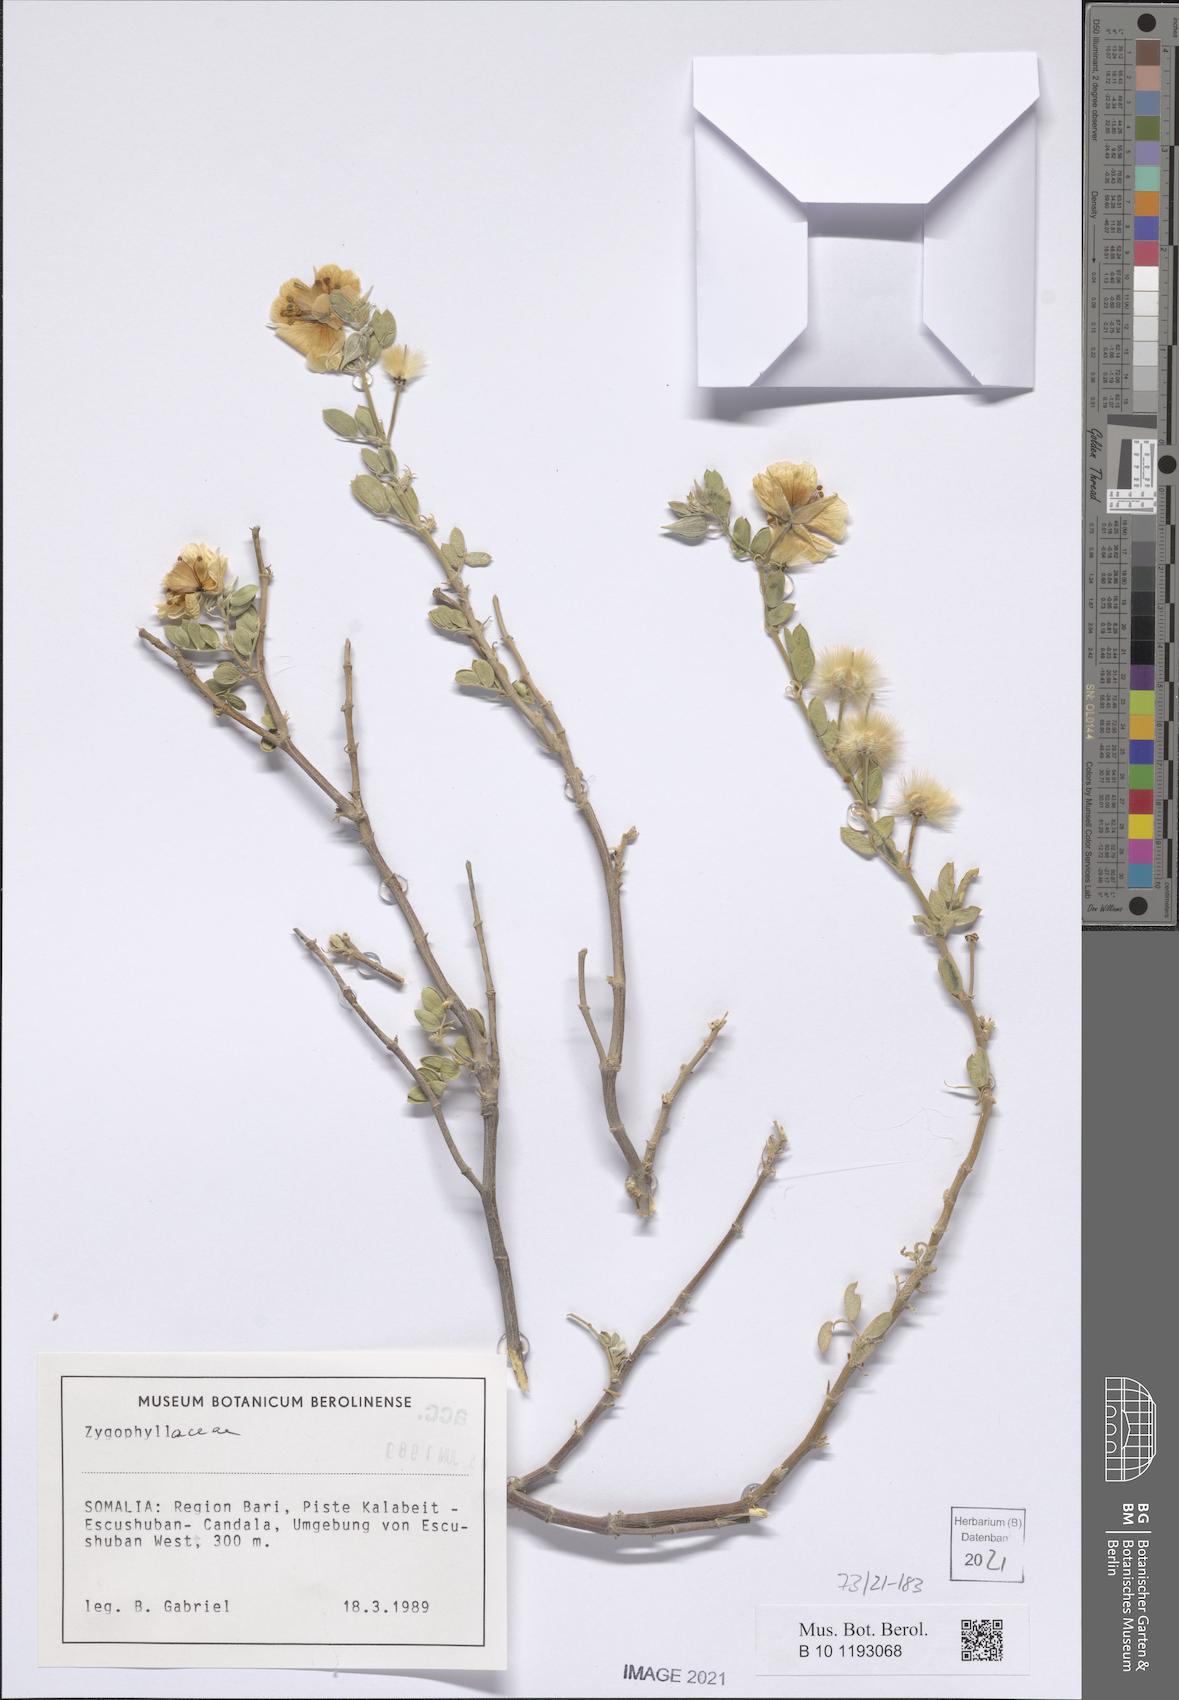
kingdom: Plantae
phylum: Tracheophyta
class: Magnoliopsida
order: Zygophyllales
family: Zygophyllaceae
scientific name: Zygophyllaceae
